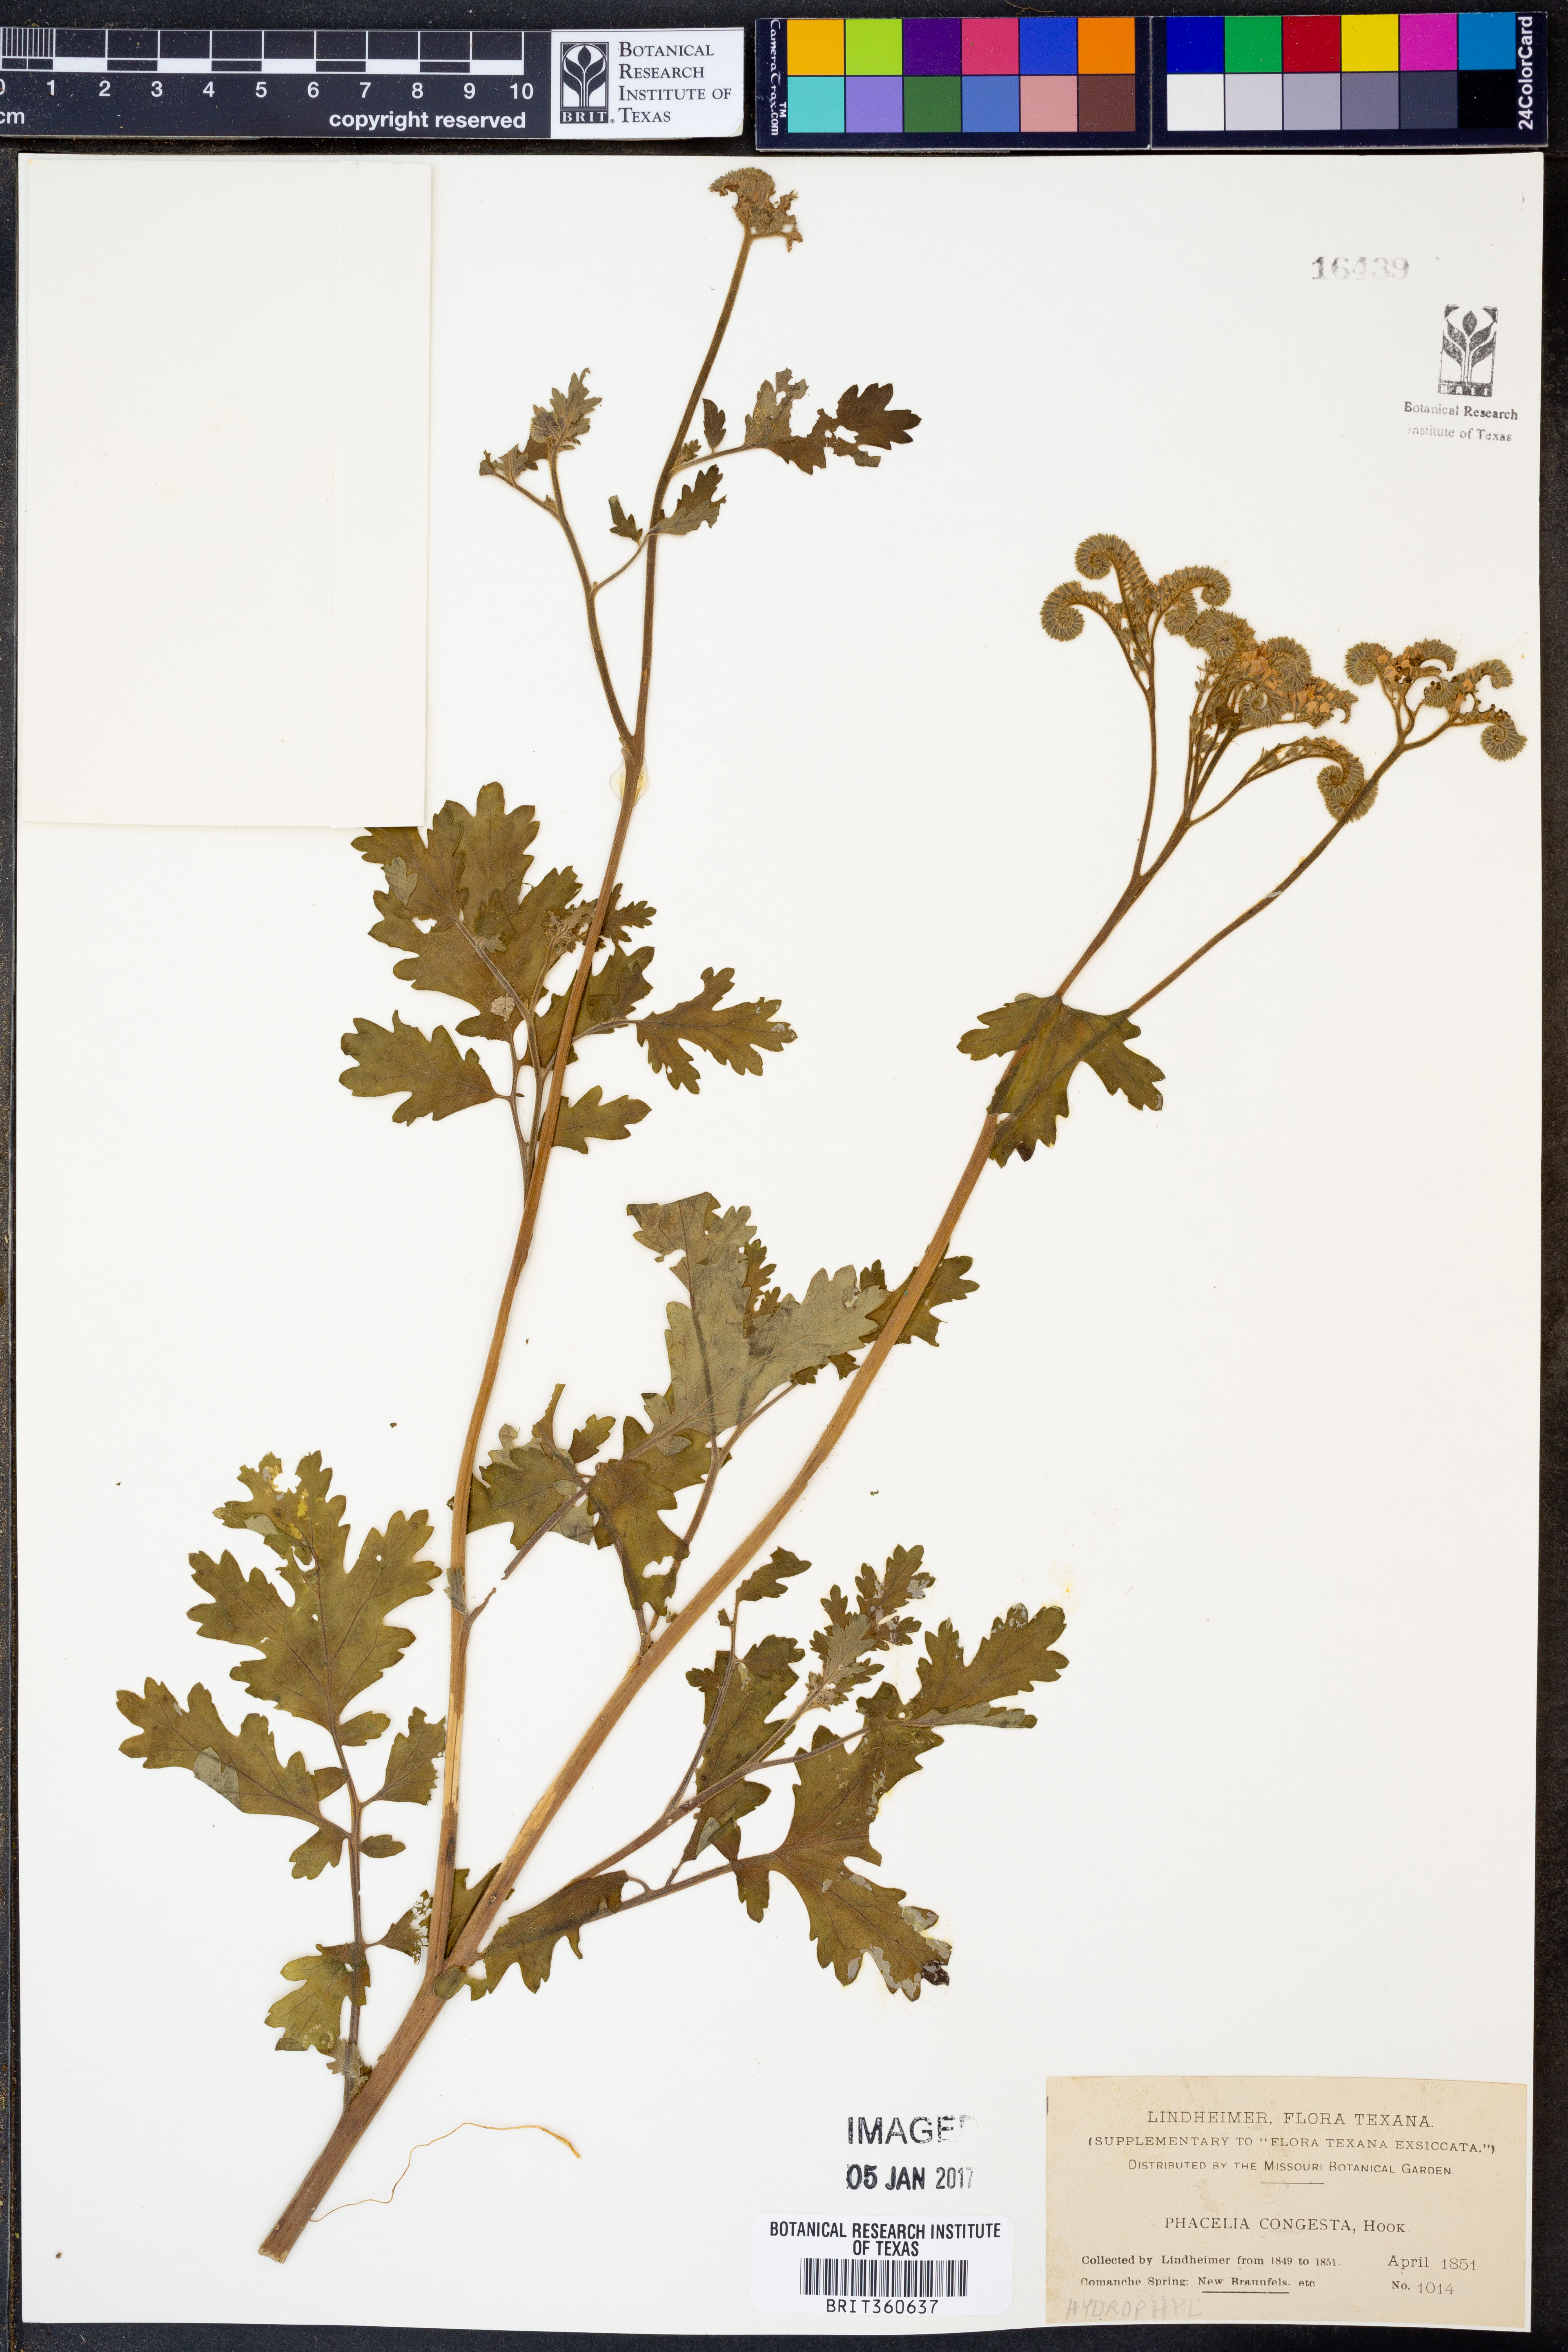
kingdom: Plantae
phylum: Tracheophyta
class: Magnoliopsida
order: Boraginales
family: Hydrophyllaceae
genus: Phacelia
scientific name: Phacelia congesta
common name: Blue curls
